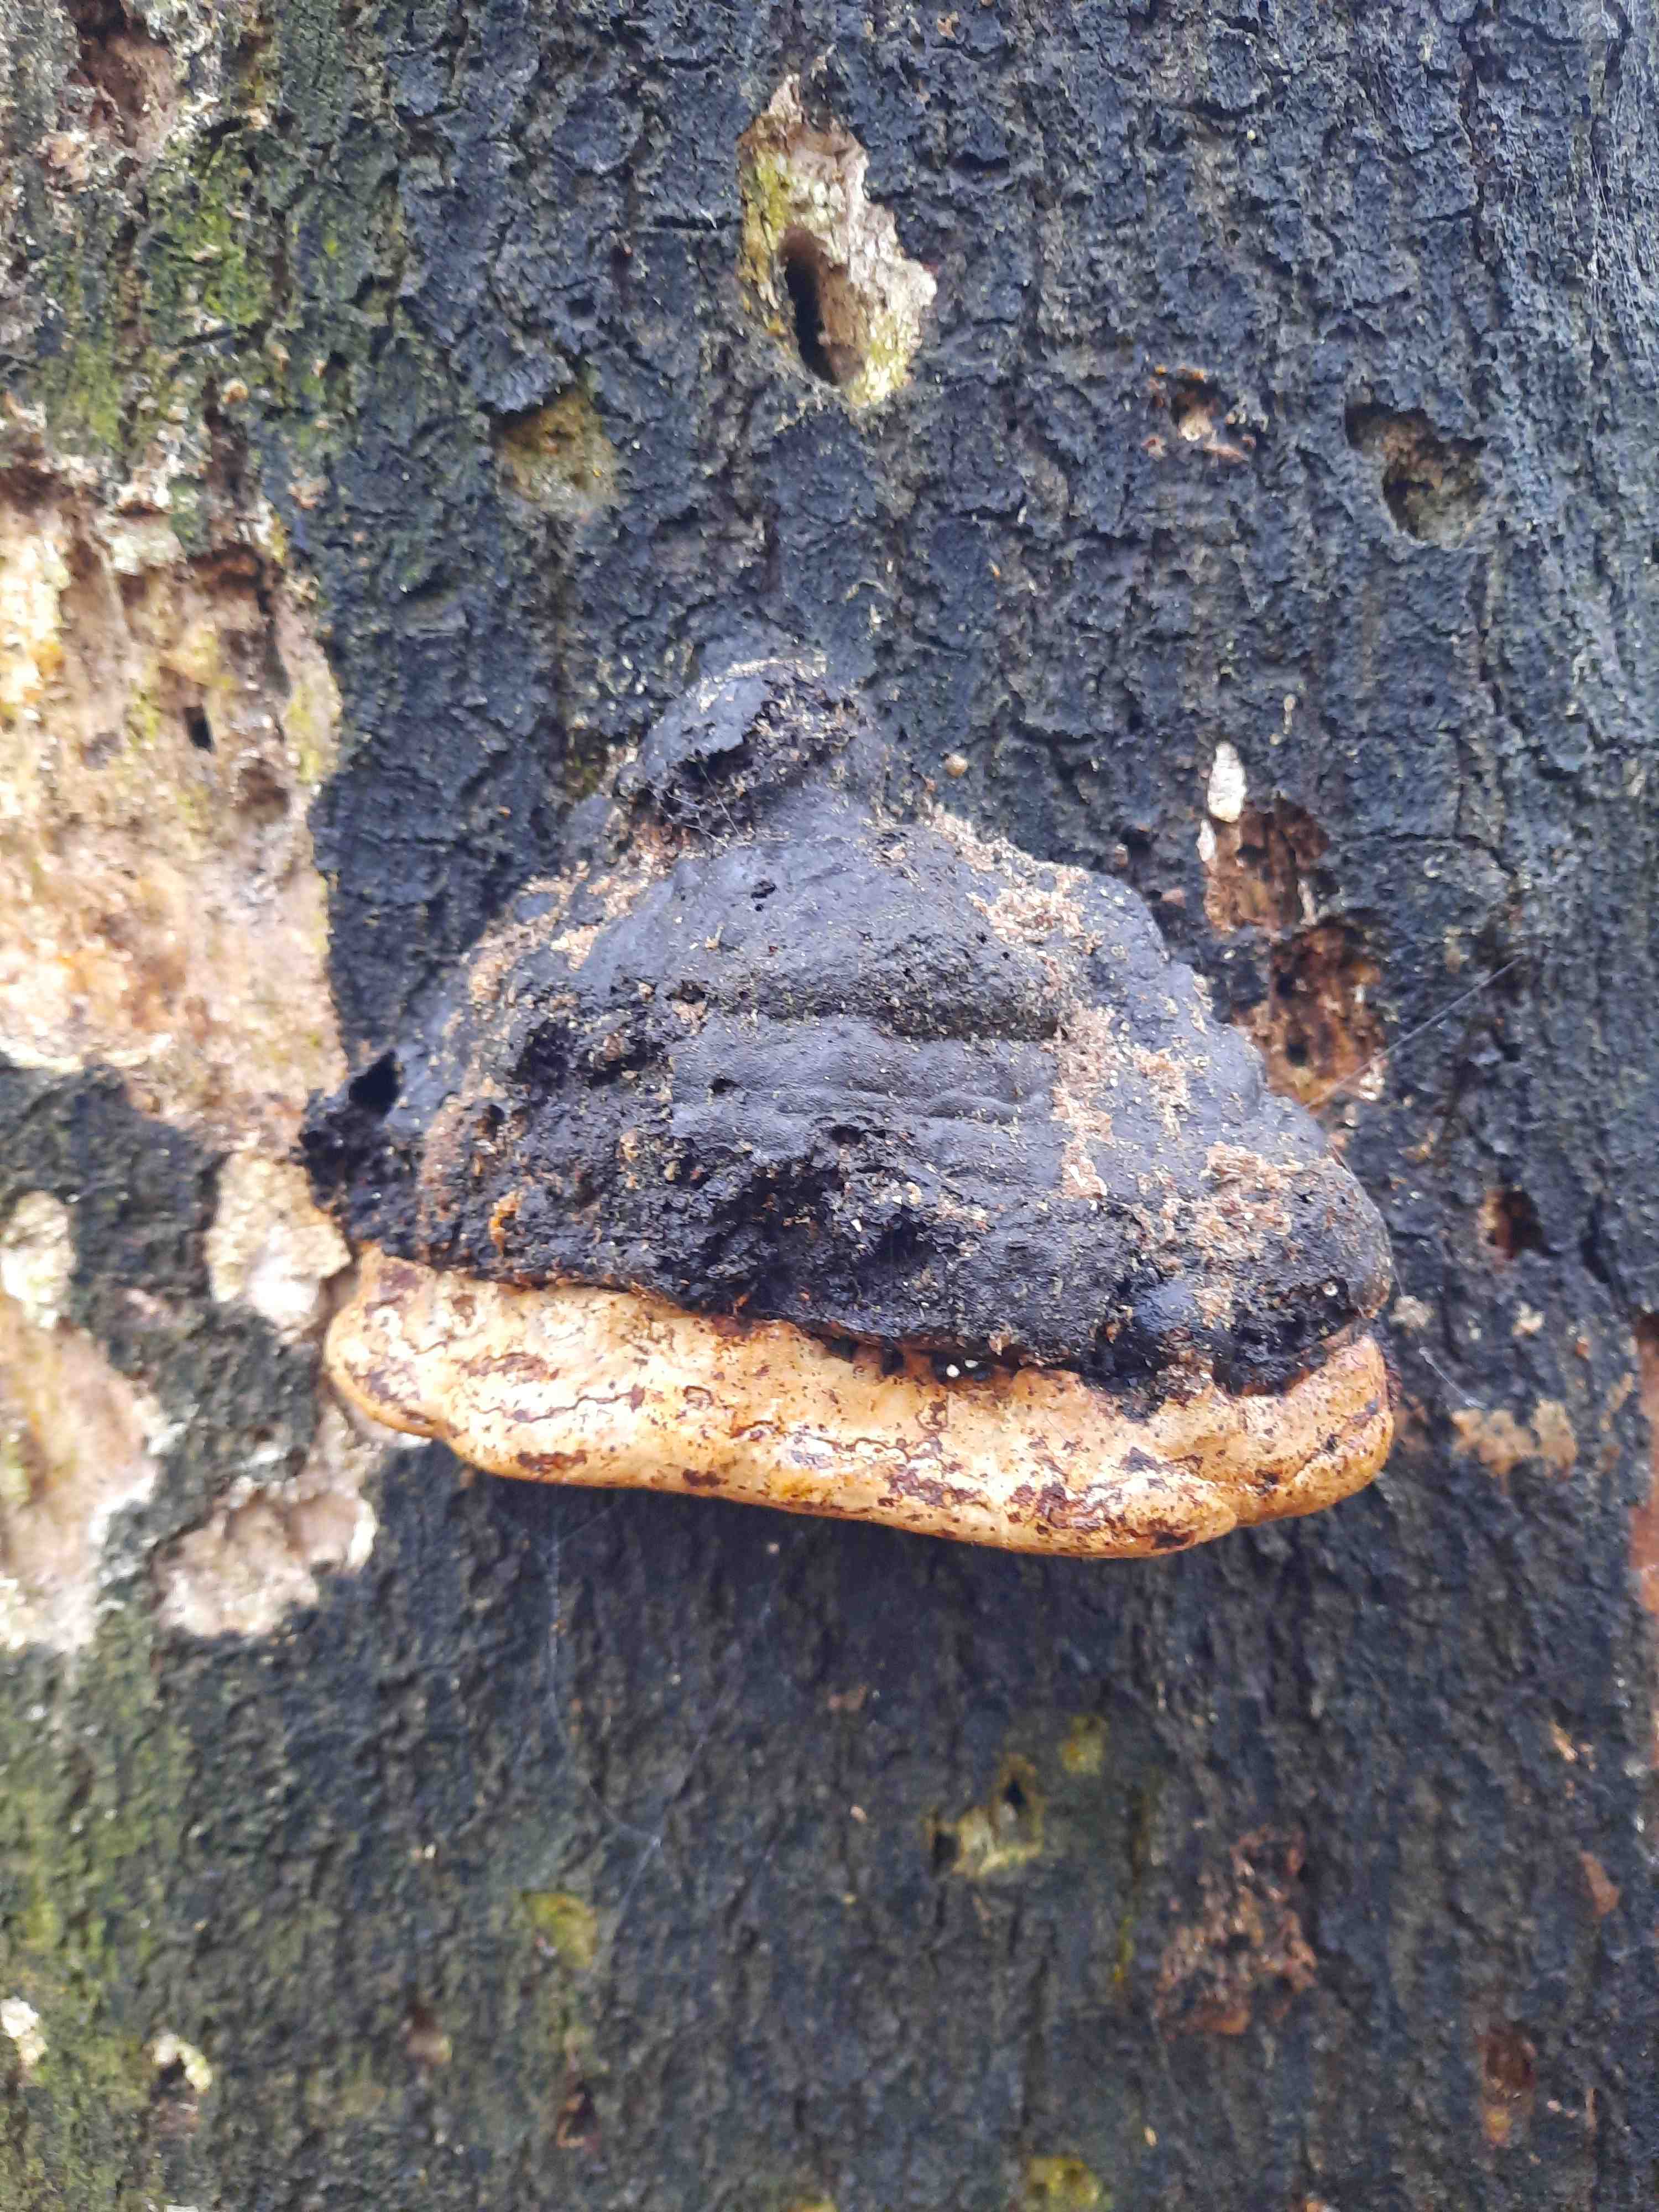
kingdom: Fungi
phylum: Basidiomycota
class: Agaricomycetes
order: Polyporales
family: Polyporaceae
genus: Fomes
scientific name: Fomes fomentarius
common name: tøndersvamp
